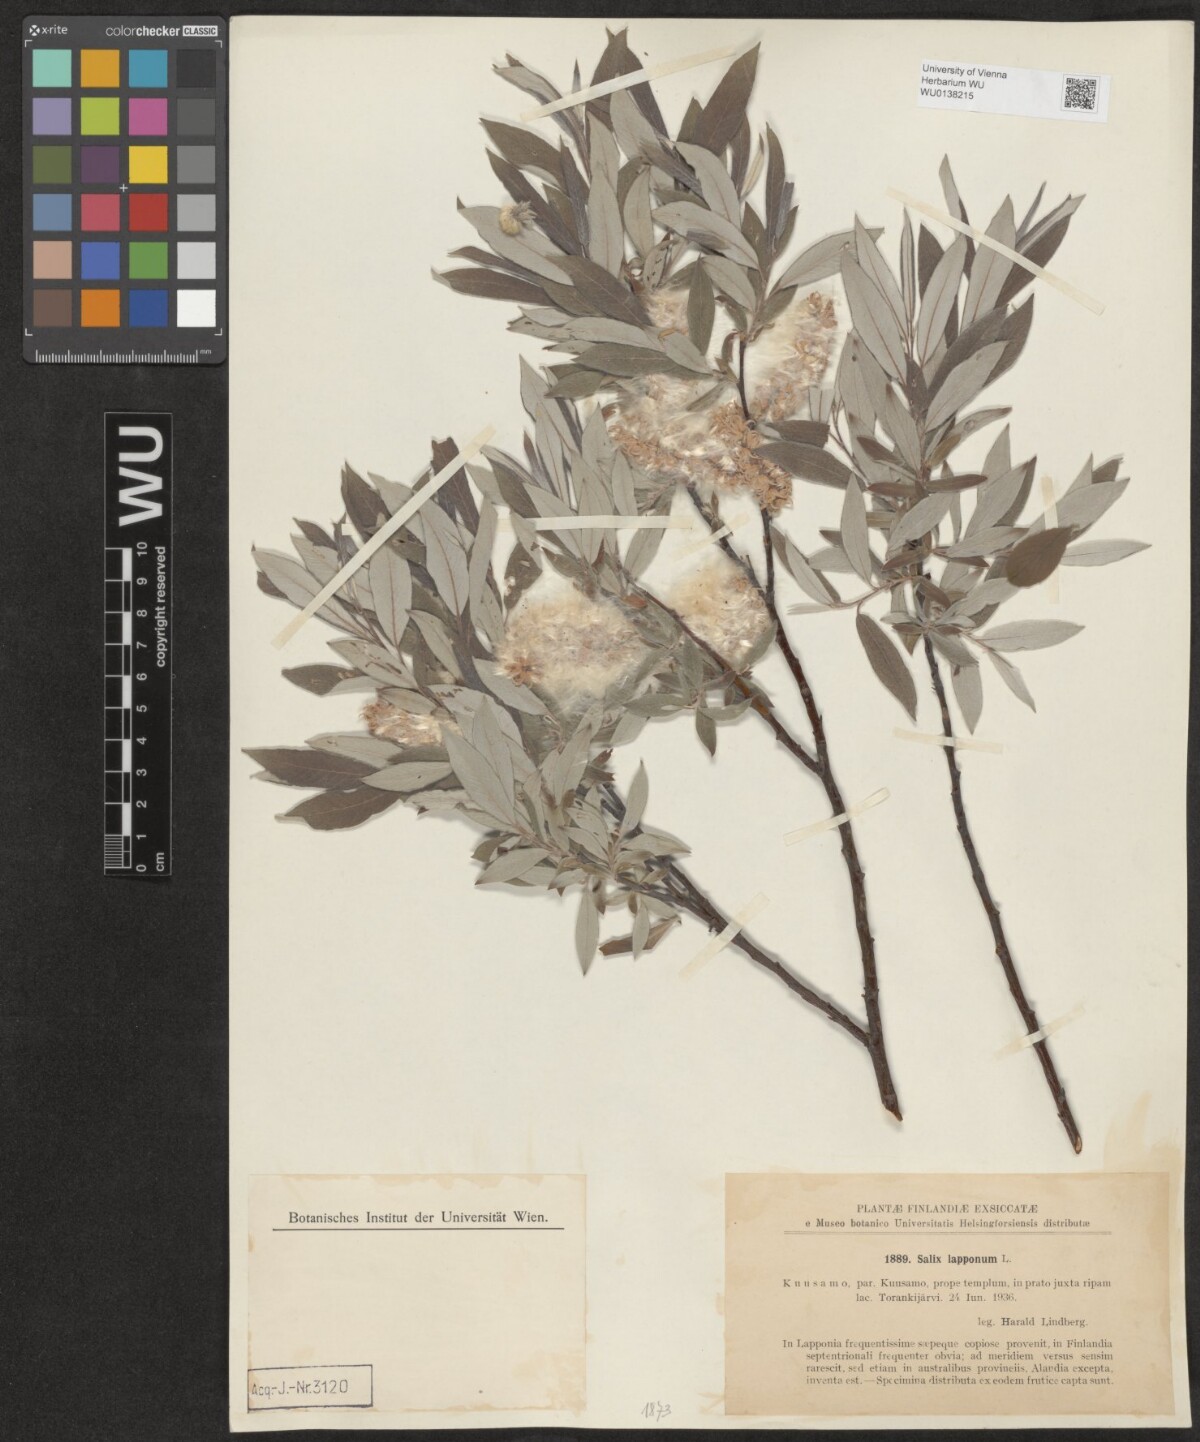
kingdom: Plantae
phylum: Tracheophyta
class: Magnoliopsida
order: Malpighiales
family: Salicaceae
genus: Salix
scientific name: Salix lapponum
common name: Downy willow
